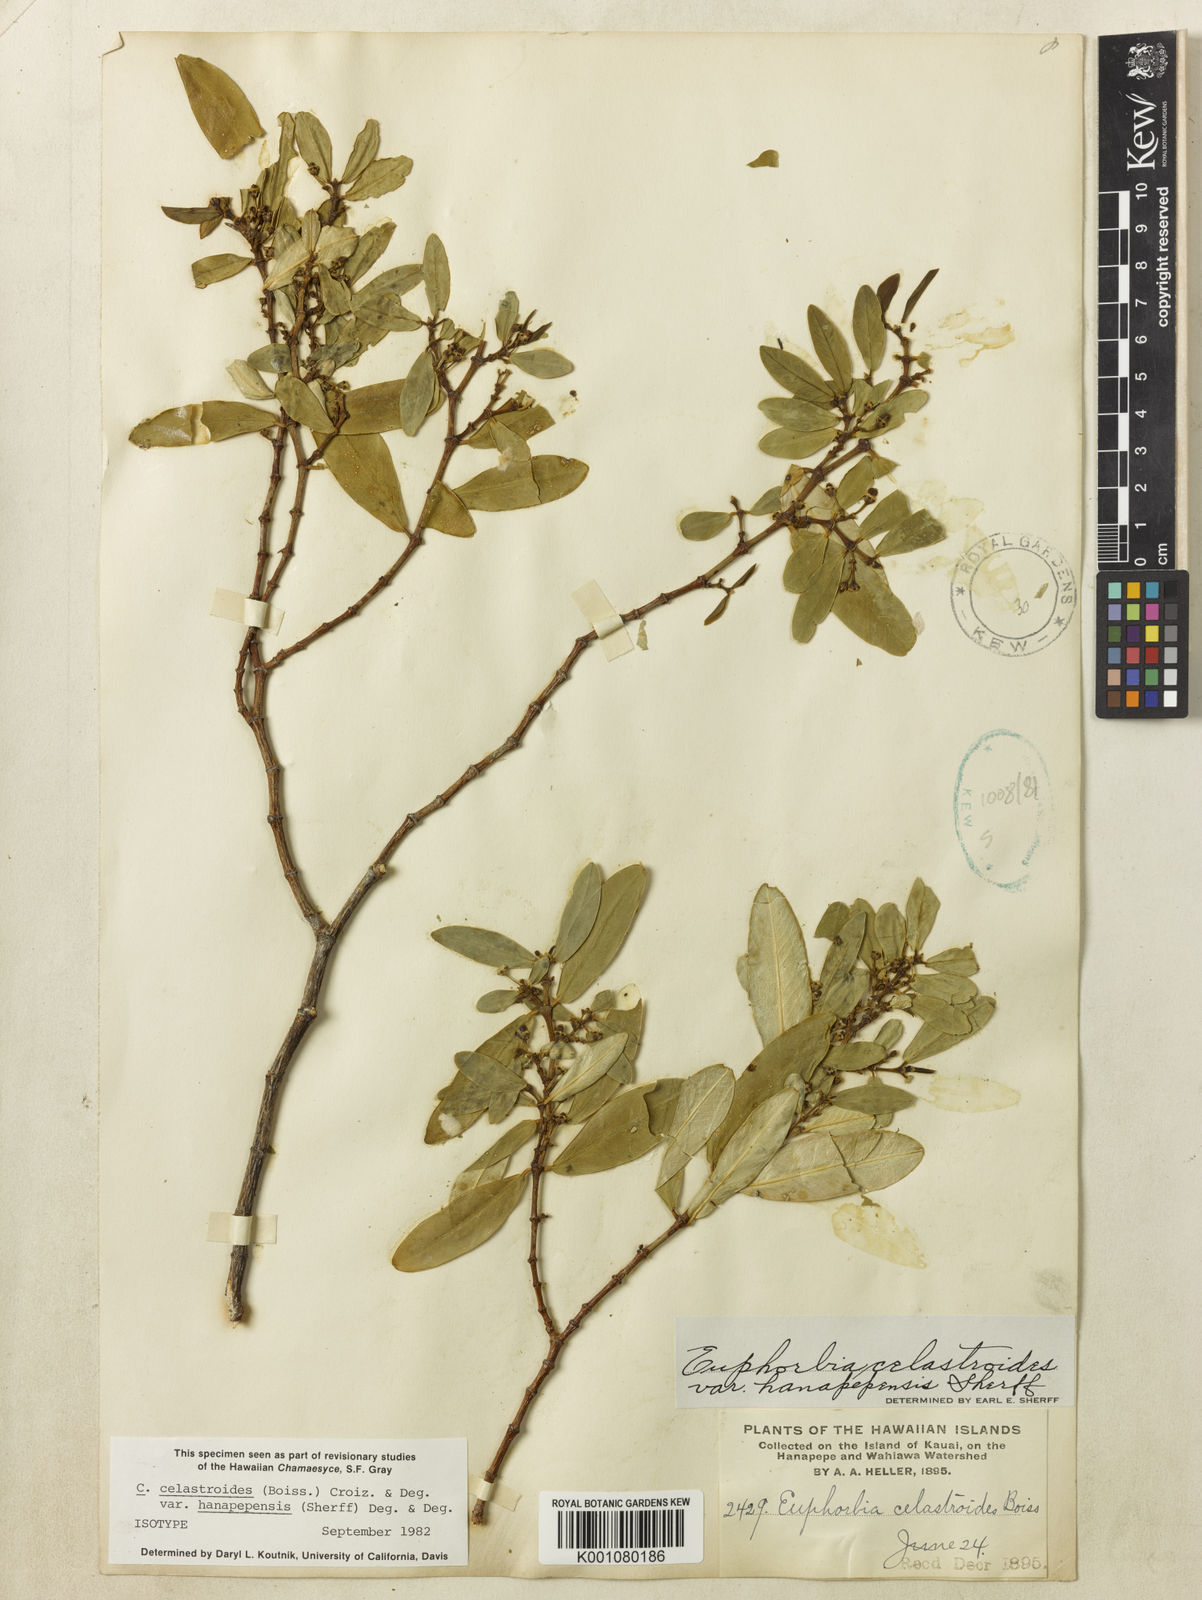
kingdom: Plantae
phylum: Tracheophyta
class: Magnoliopsida
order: Malpighiales
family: Euphorbiaceae
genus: Euphorbia
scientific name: Euphorbia celastroides
